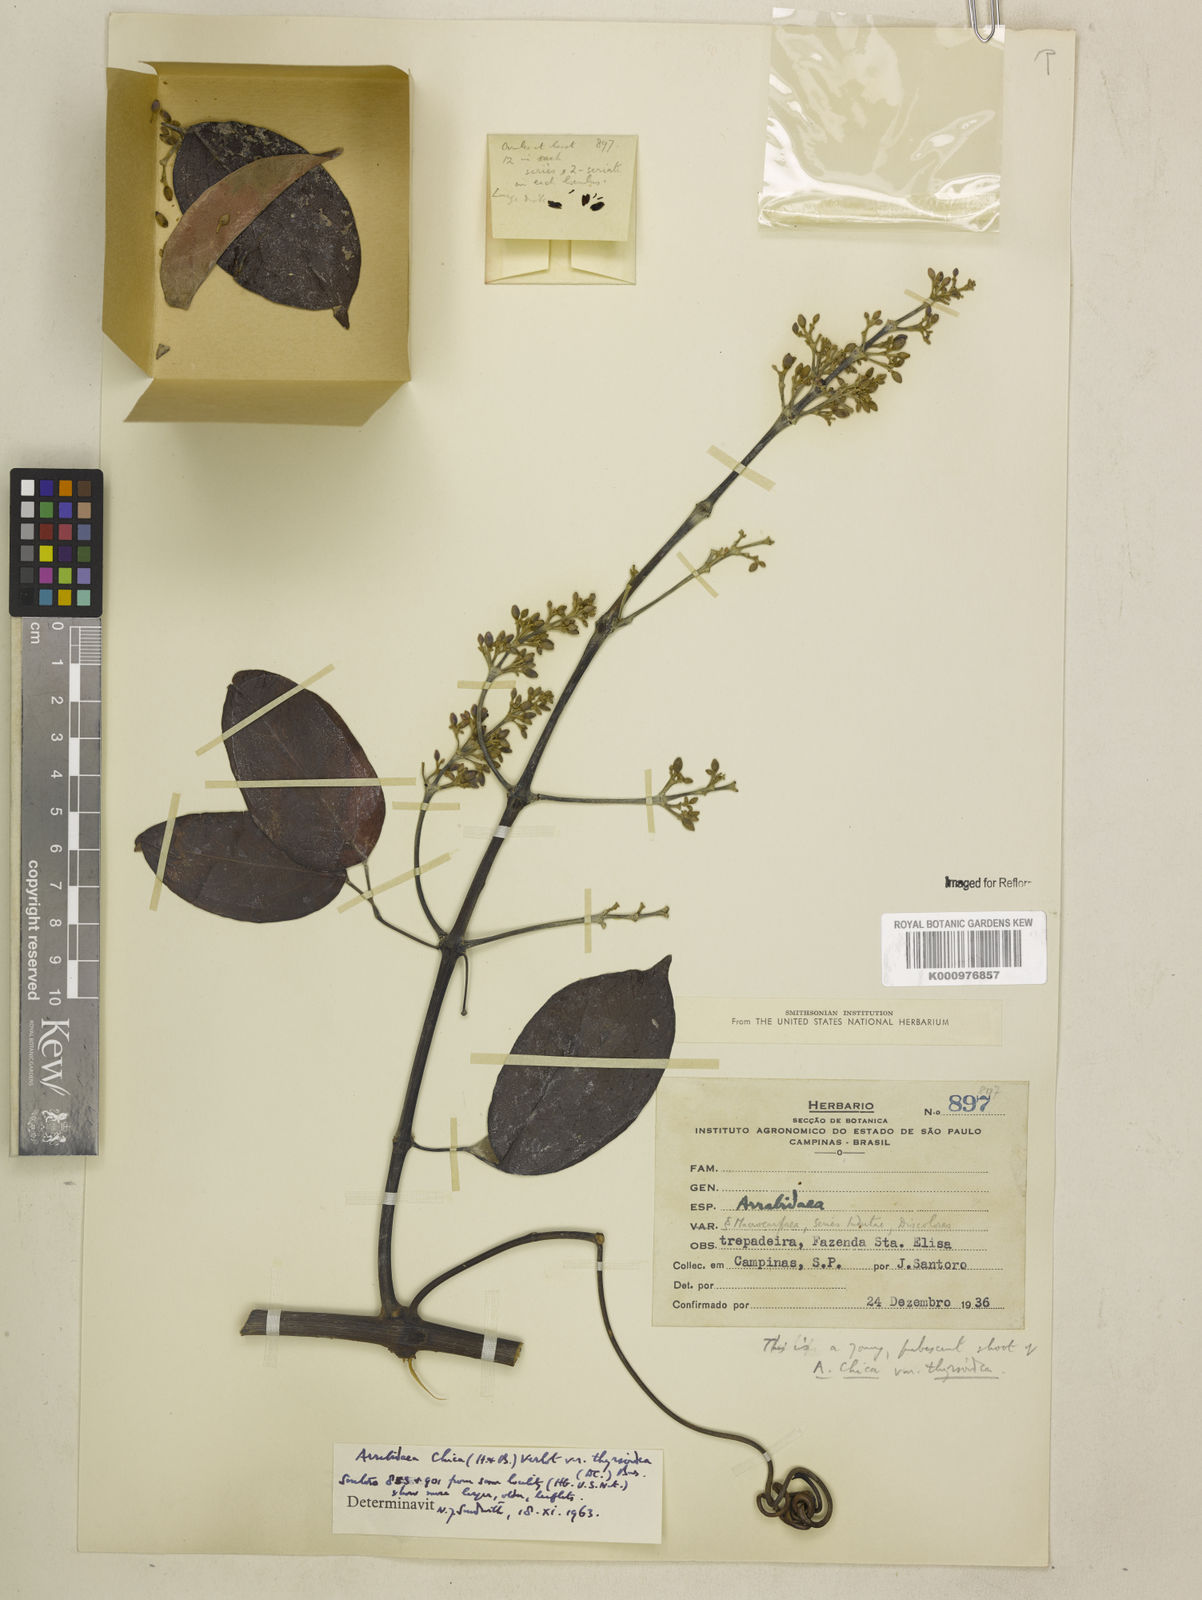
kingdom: Plantae
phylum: Tracheophyta
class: Magnoliopsida
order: Lamiales
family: Bignoniaceae
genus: Fridericia
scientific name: Fridericia chica
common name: Cricketvine
